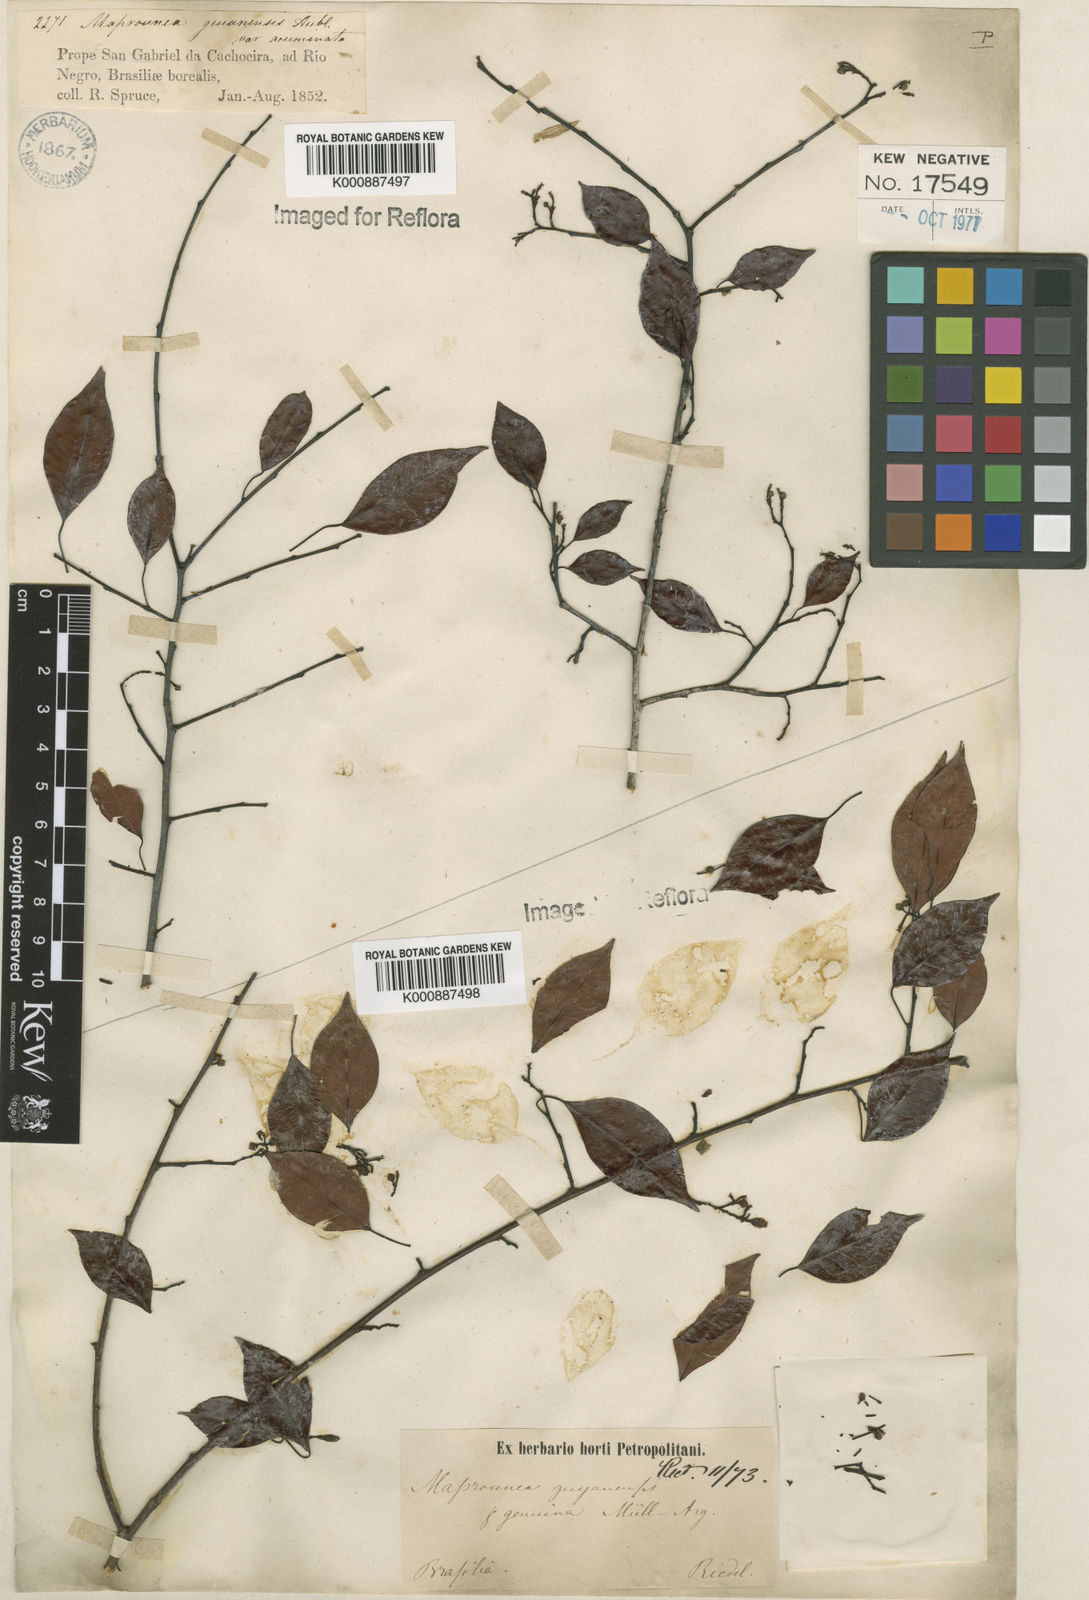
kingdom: Plantae
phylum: Tracheophyta
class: Magnoliopsida
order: Malpighiales
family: Euphorbiaceae
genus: Maprounea
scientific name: Maprounea guianensis
